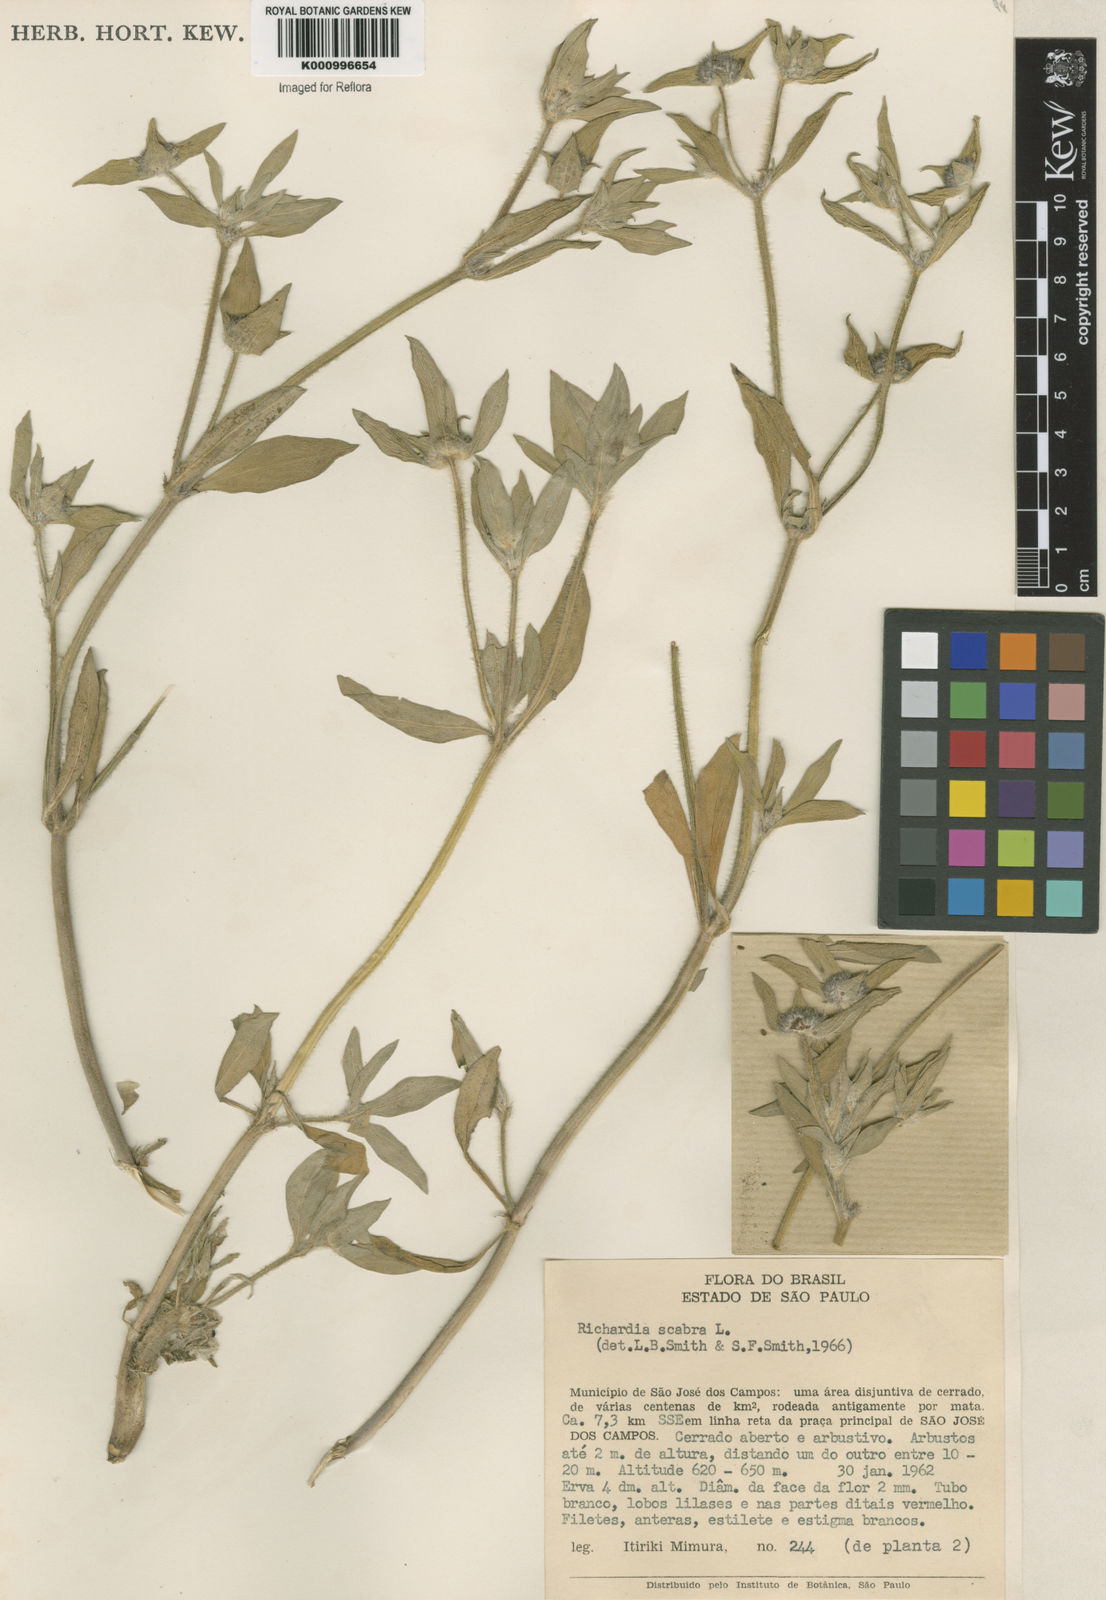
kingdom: Plantae
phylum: Tracheophyta
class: Magnoliopsida
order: Gentianales
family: Rubiaceae
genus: Richardia
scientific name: Richardia scabra
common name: Rough mexican clover
